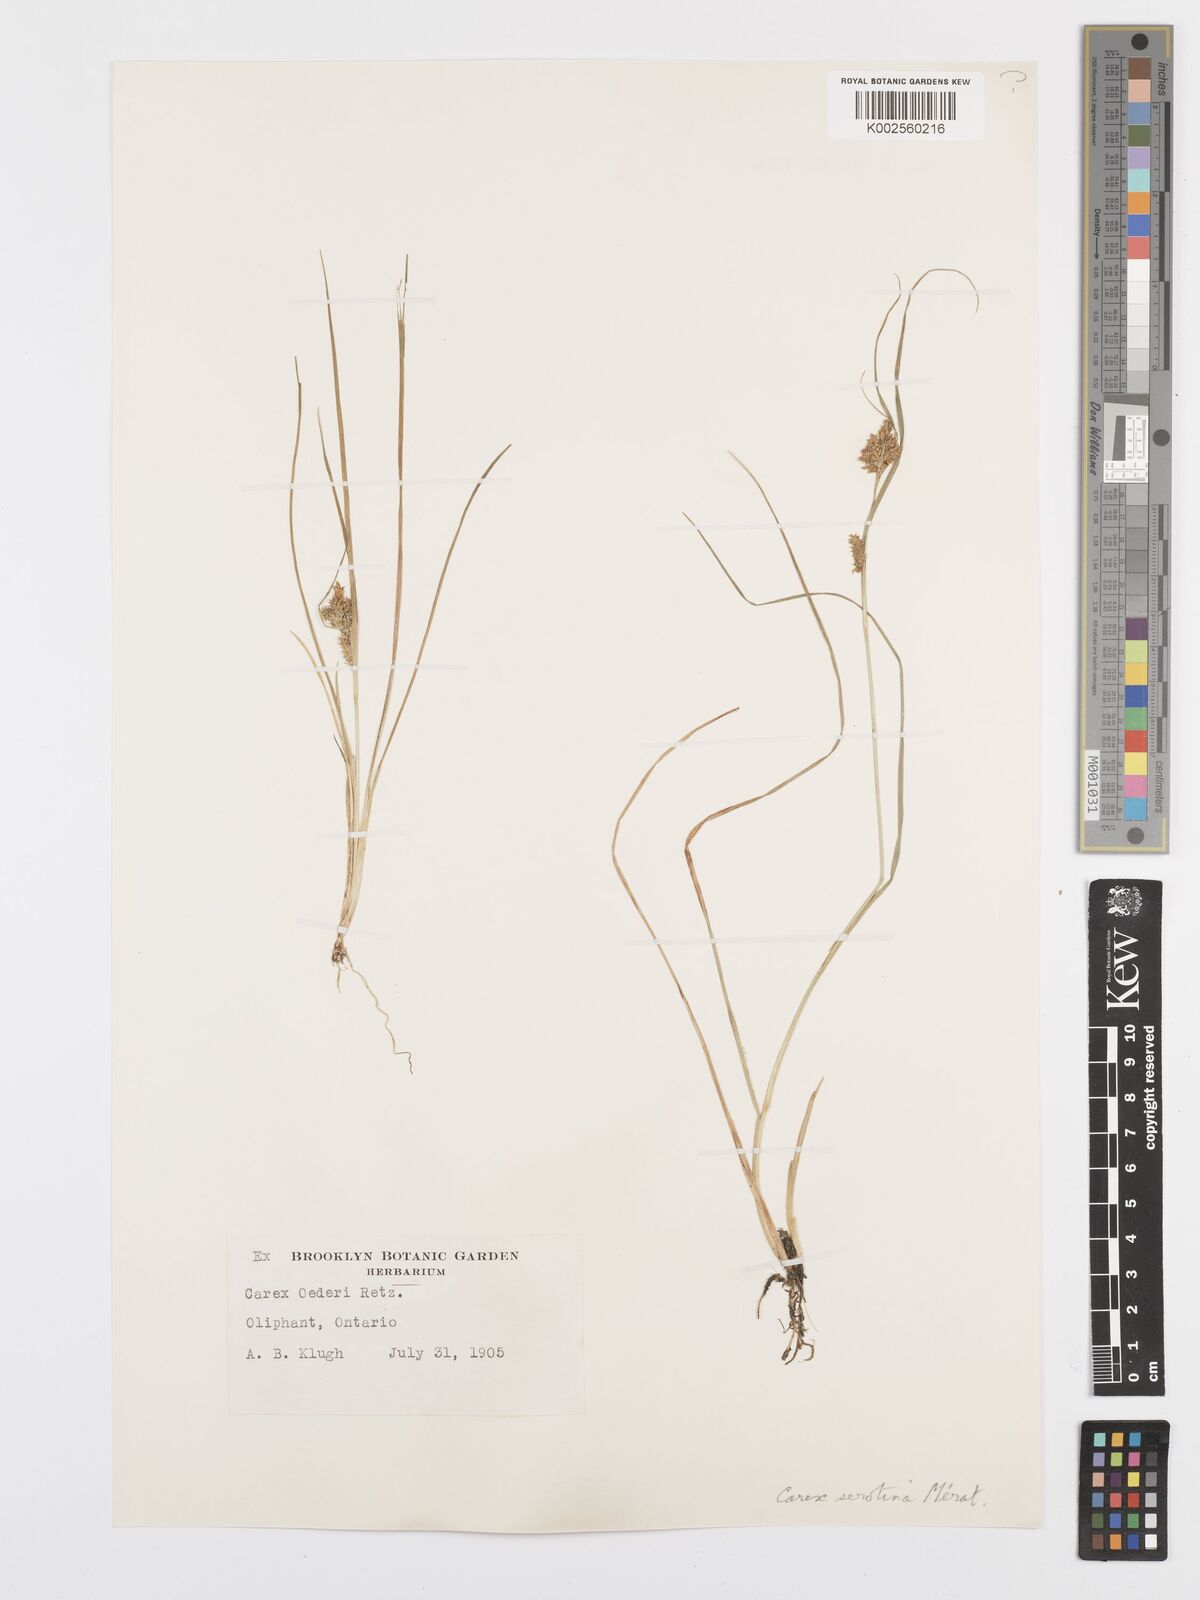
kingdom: Plantae
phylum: Tracheophyta
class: Liliopsida
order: Poales
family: Cyperaceae
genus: Carex
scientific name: Carex oederi
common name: Common & small-fruited yellow-sedge
